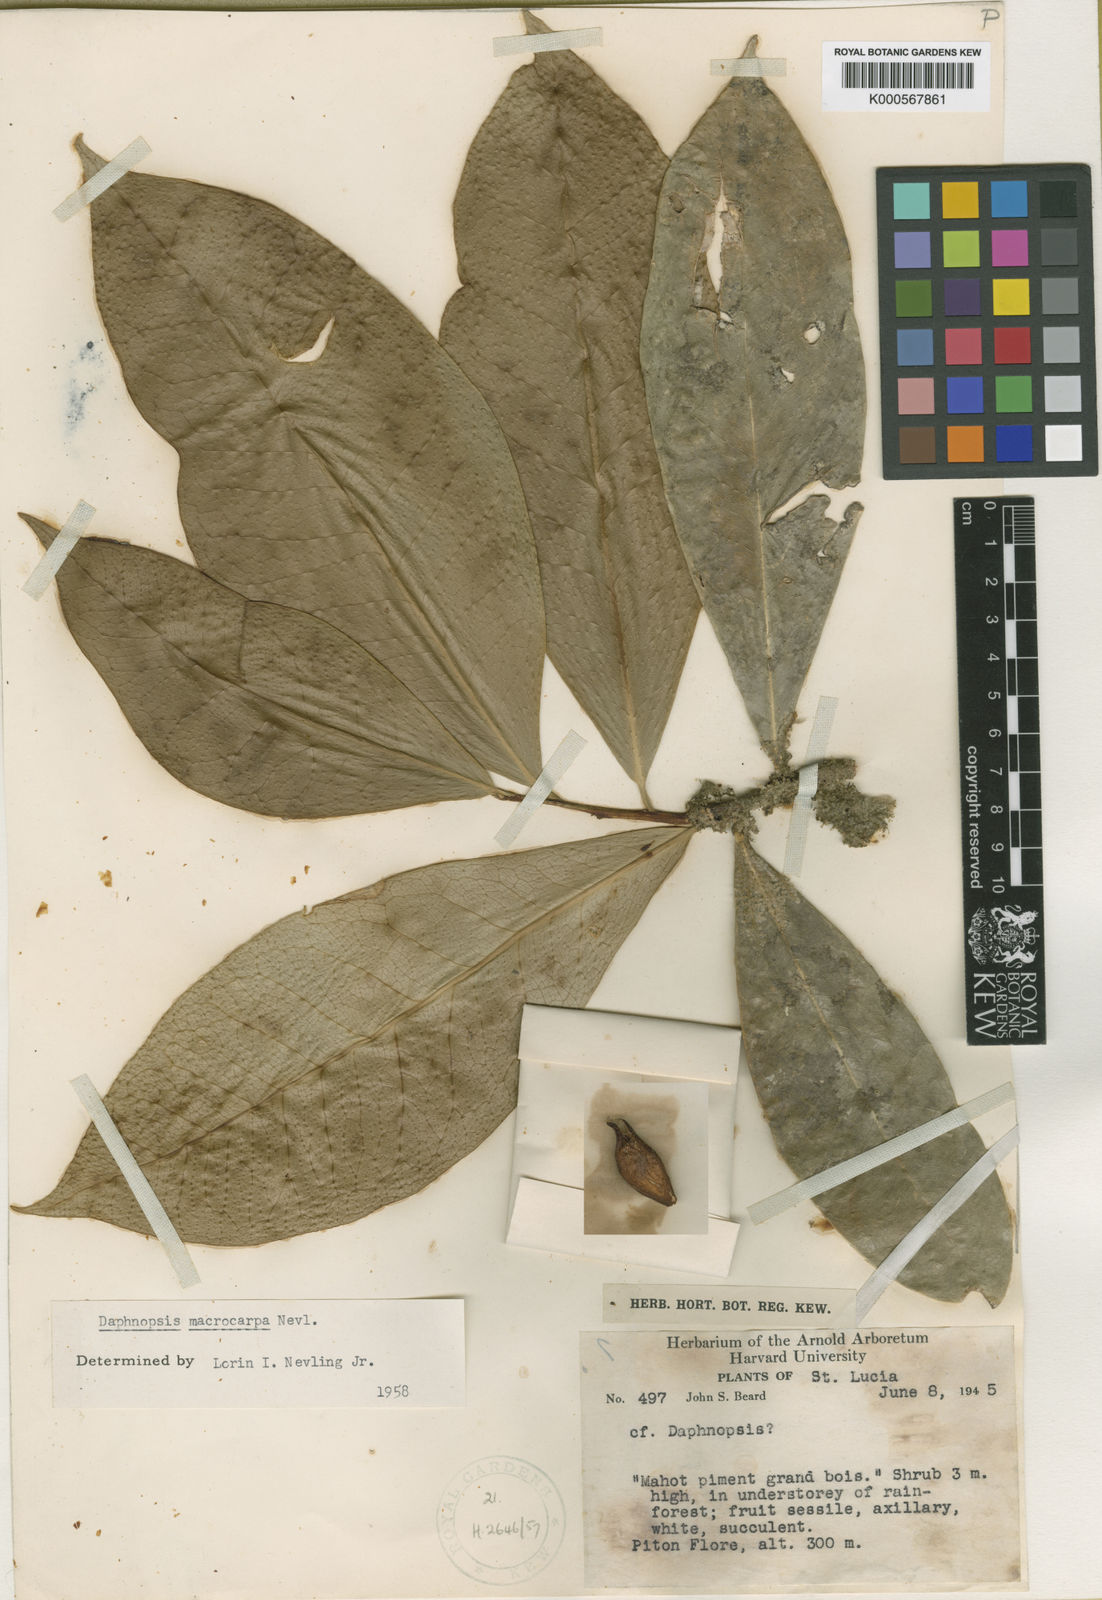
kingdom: Plantae
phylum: Tracheophyta
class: Magnoliopsida
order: Malvales
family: Thymelaeaceae
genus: Daphnopsis
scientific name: Daphnopsis macrocarpa
